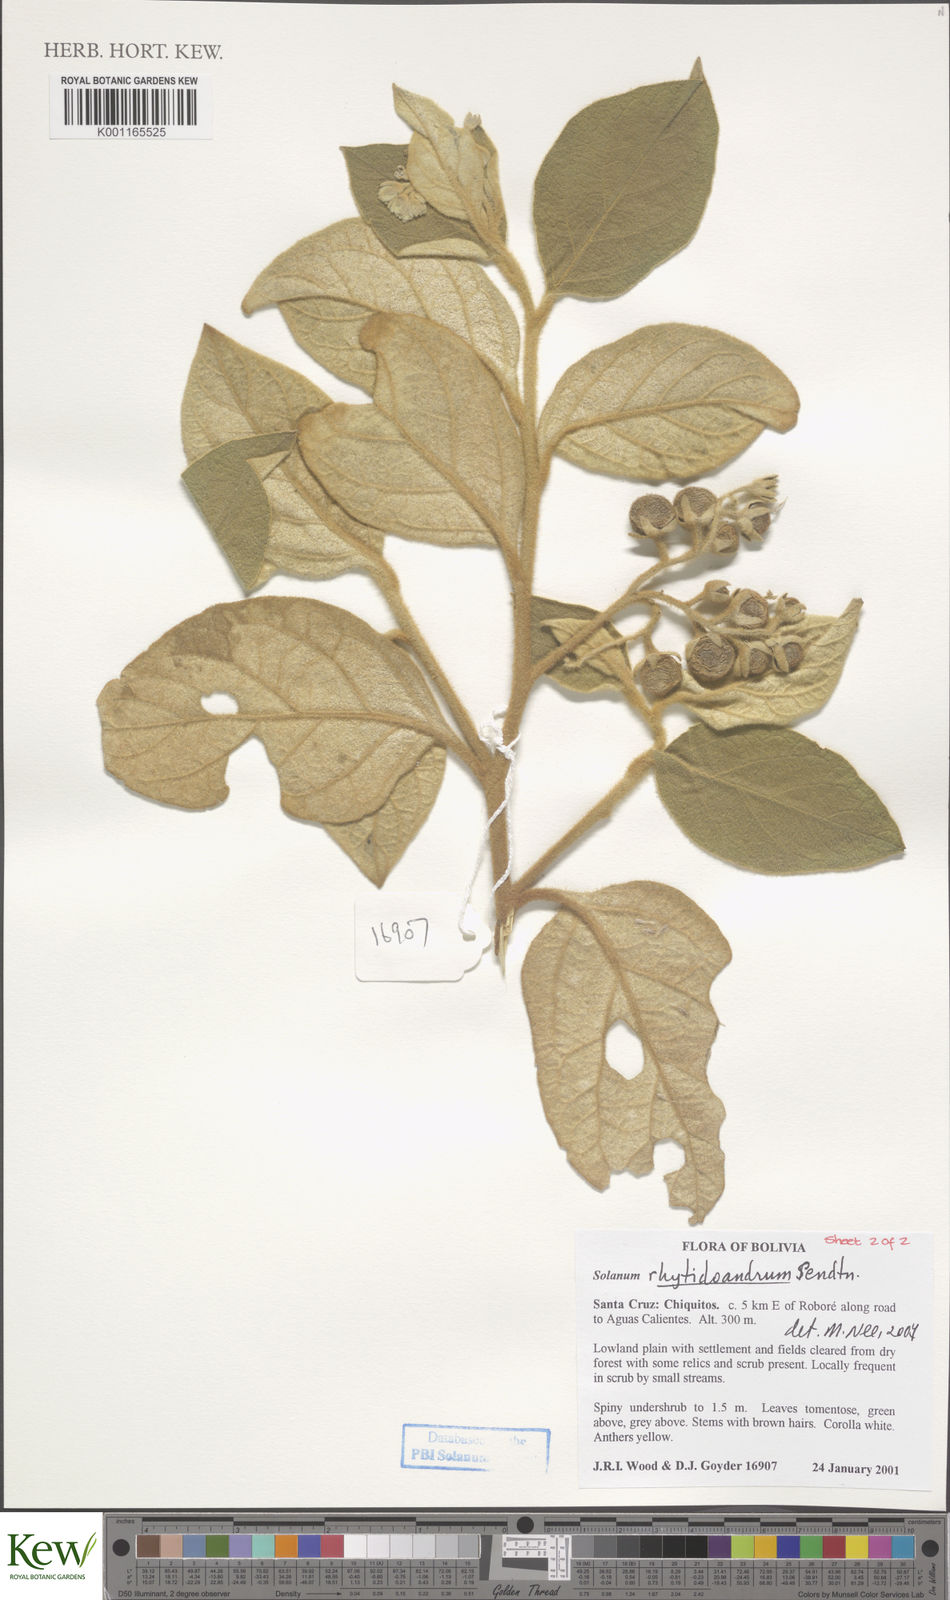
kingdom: Plantae
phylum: Tracheophyta
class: Magnoliopsida
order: Solanales
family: Solanaceae
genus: Solanum
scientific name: Solanum rhytidoandrum
